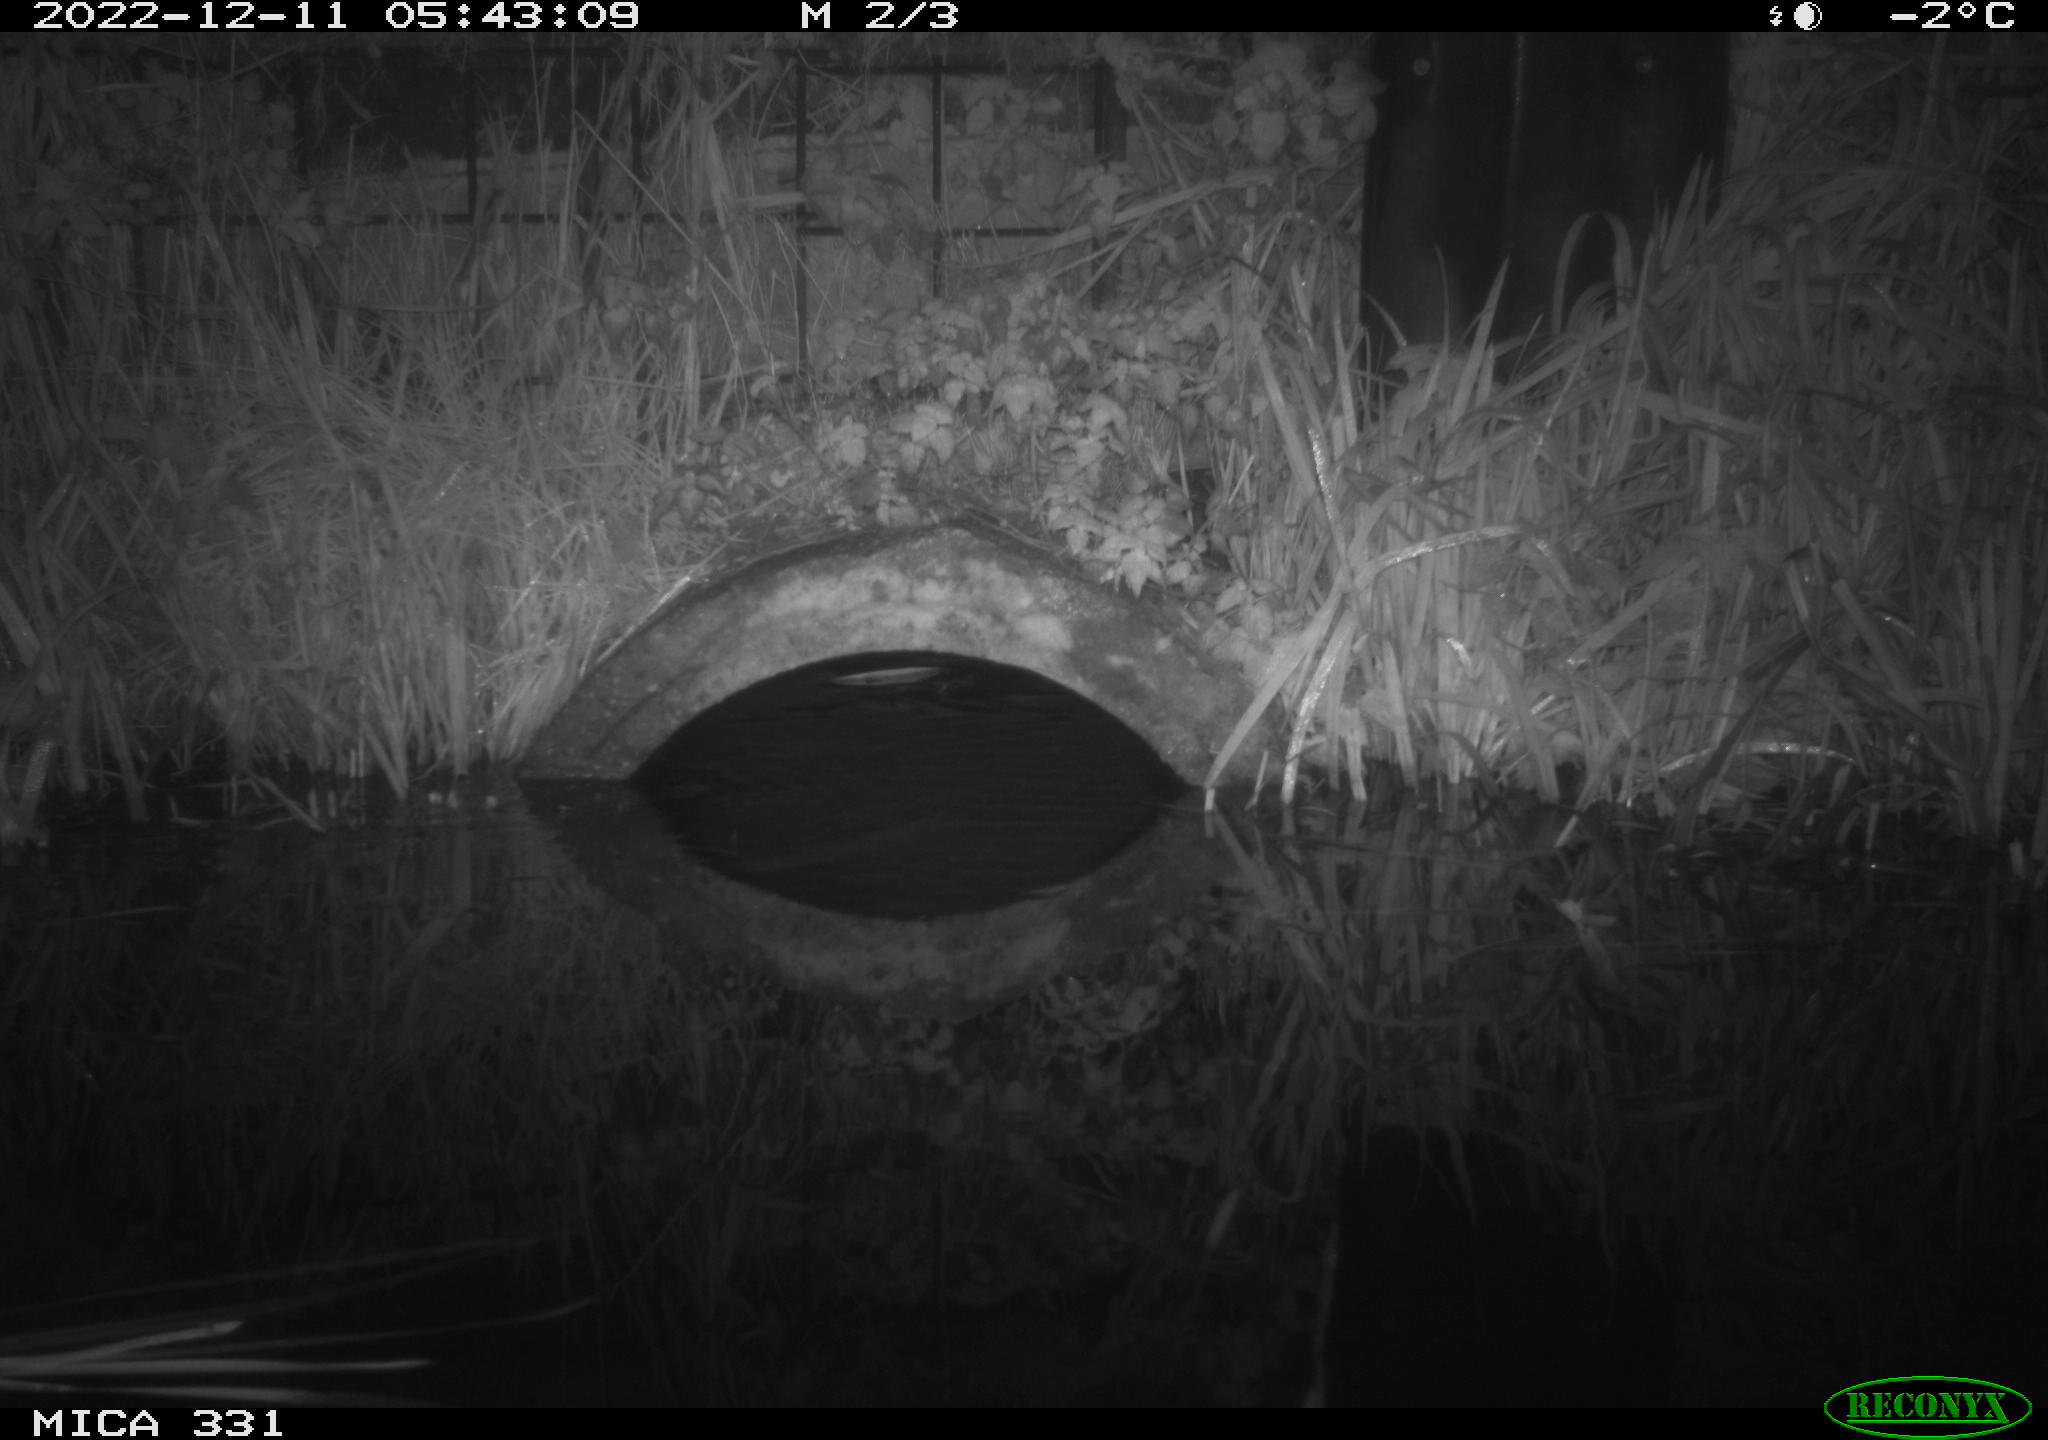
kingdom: Animalia
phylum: Chordata
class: Mammalia
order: Rodentia
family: Muridae
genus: Rattus
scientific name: Rattus norvegicus
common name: Brown rat
